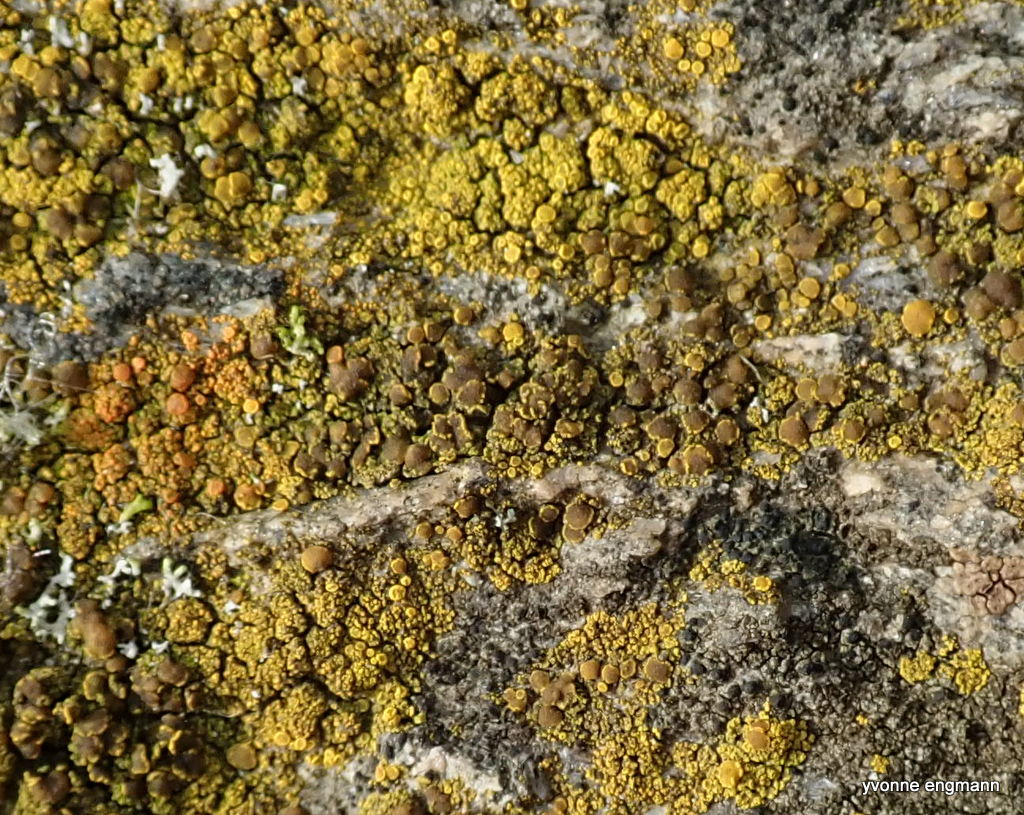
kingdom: Fungi
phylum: Ascomycota
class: Candelariomycetes
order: Candelariales
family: Candelariaceae
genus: Candelariella
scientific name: Candelariella vitellina
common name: almindelig æggeblommelav
